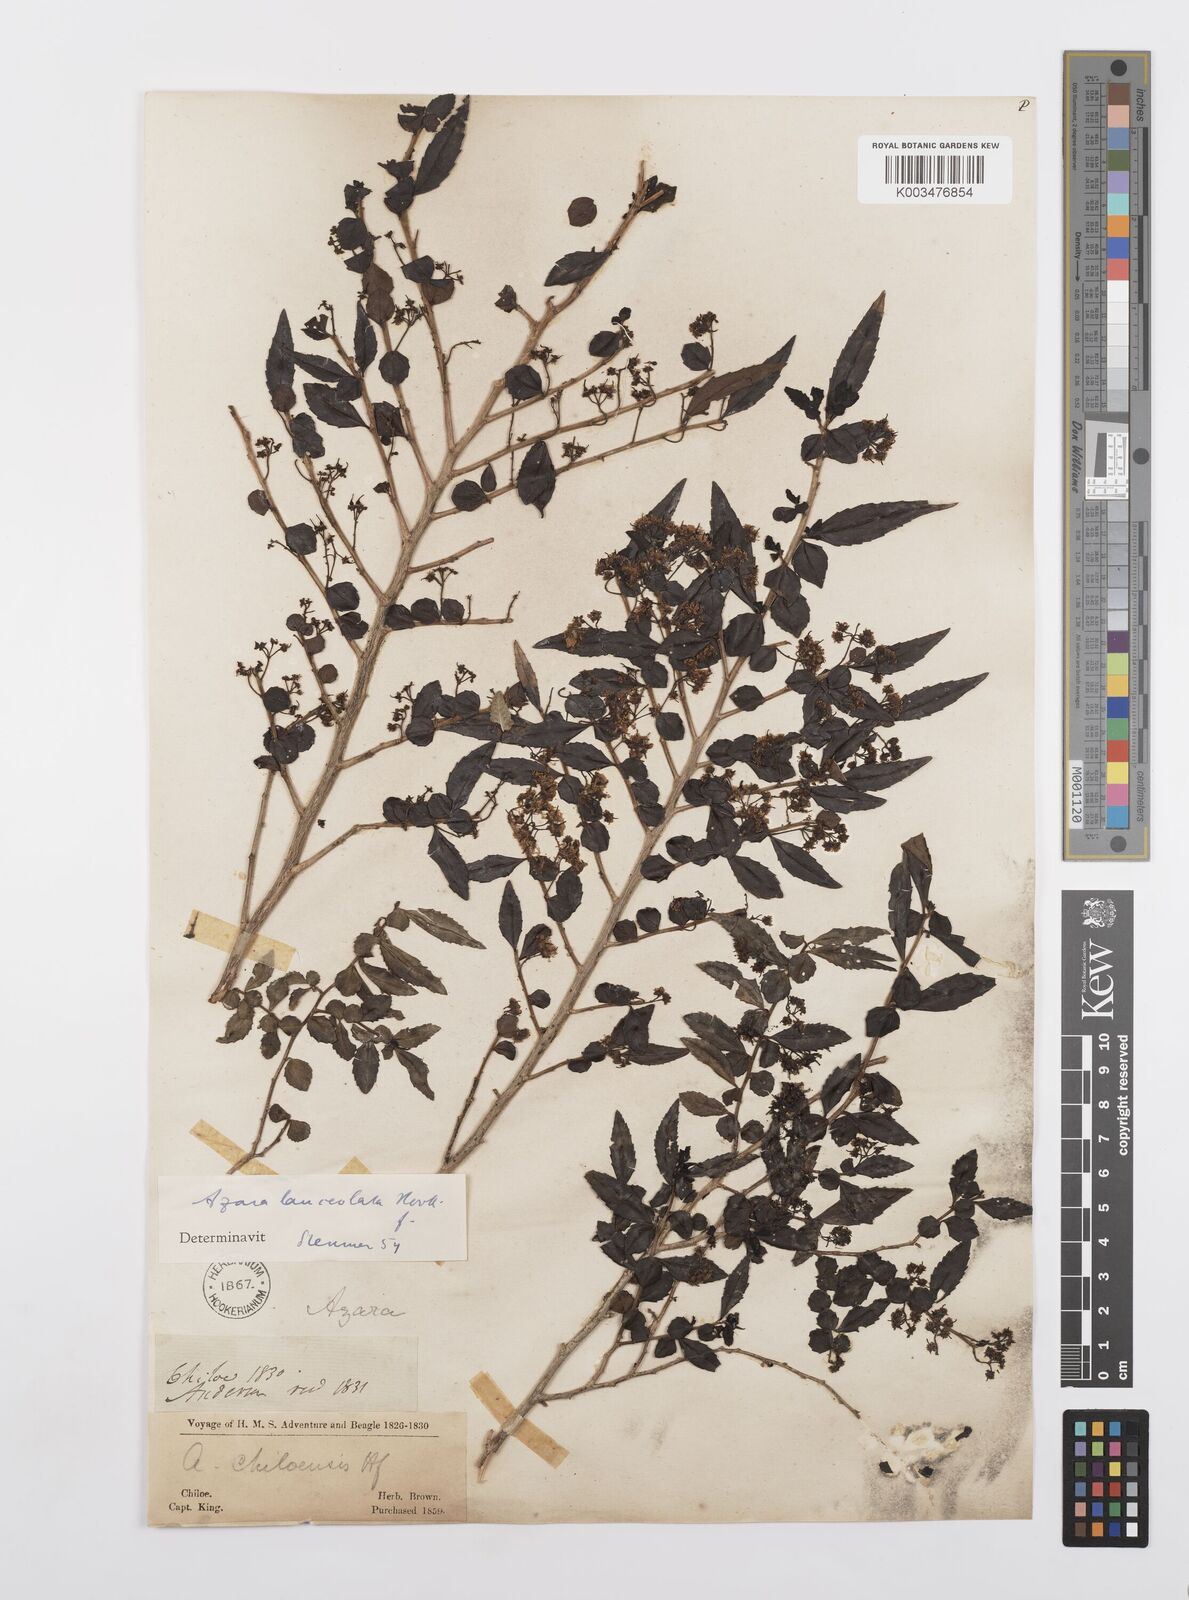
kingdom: Plantae
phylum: Tracheophyta
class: Magnoliopsida
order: Malpighiales
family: Salicaceae
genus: Azara
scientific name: Azara lanceolata
